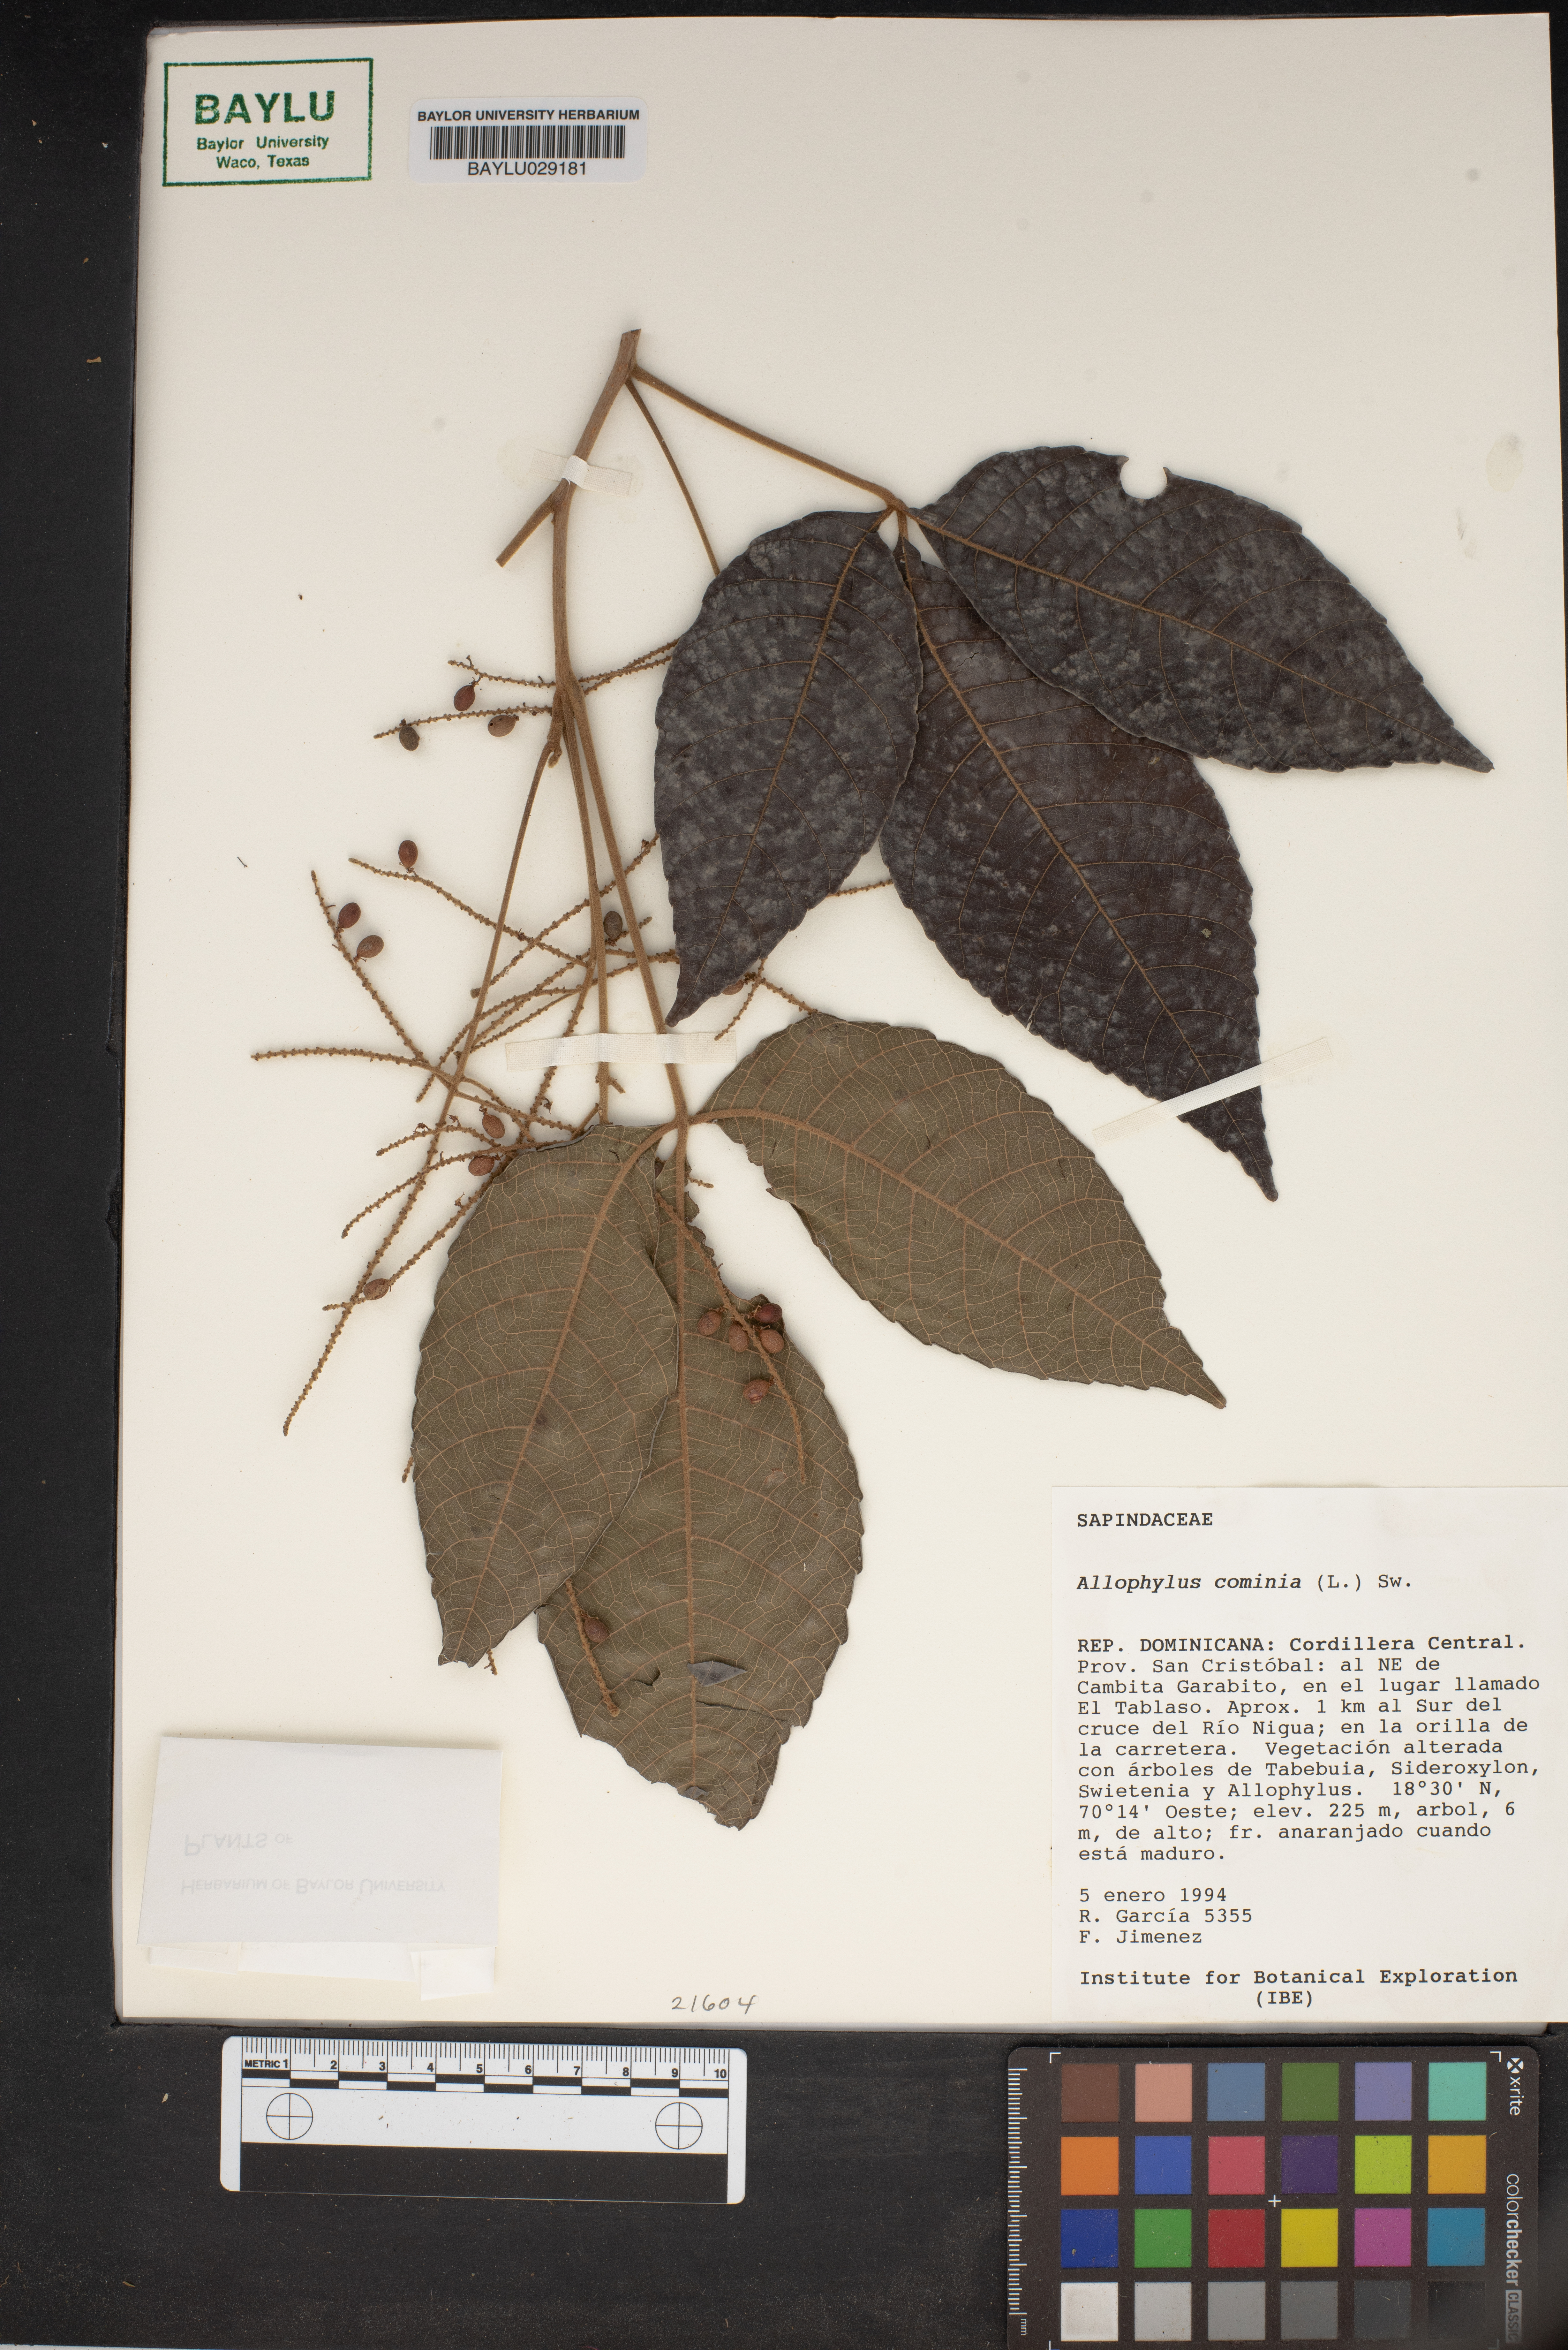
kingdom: Plantae
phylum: Tracheophyta
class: Magnoliopsida
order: Sapindales
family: Sapindaceae
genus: Allophylus
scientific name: Allophylus cominia
